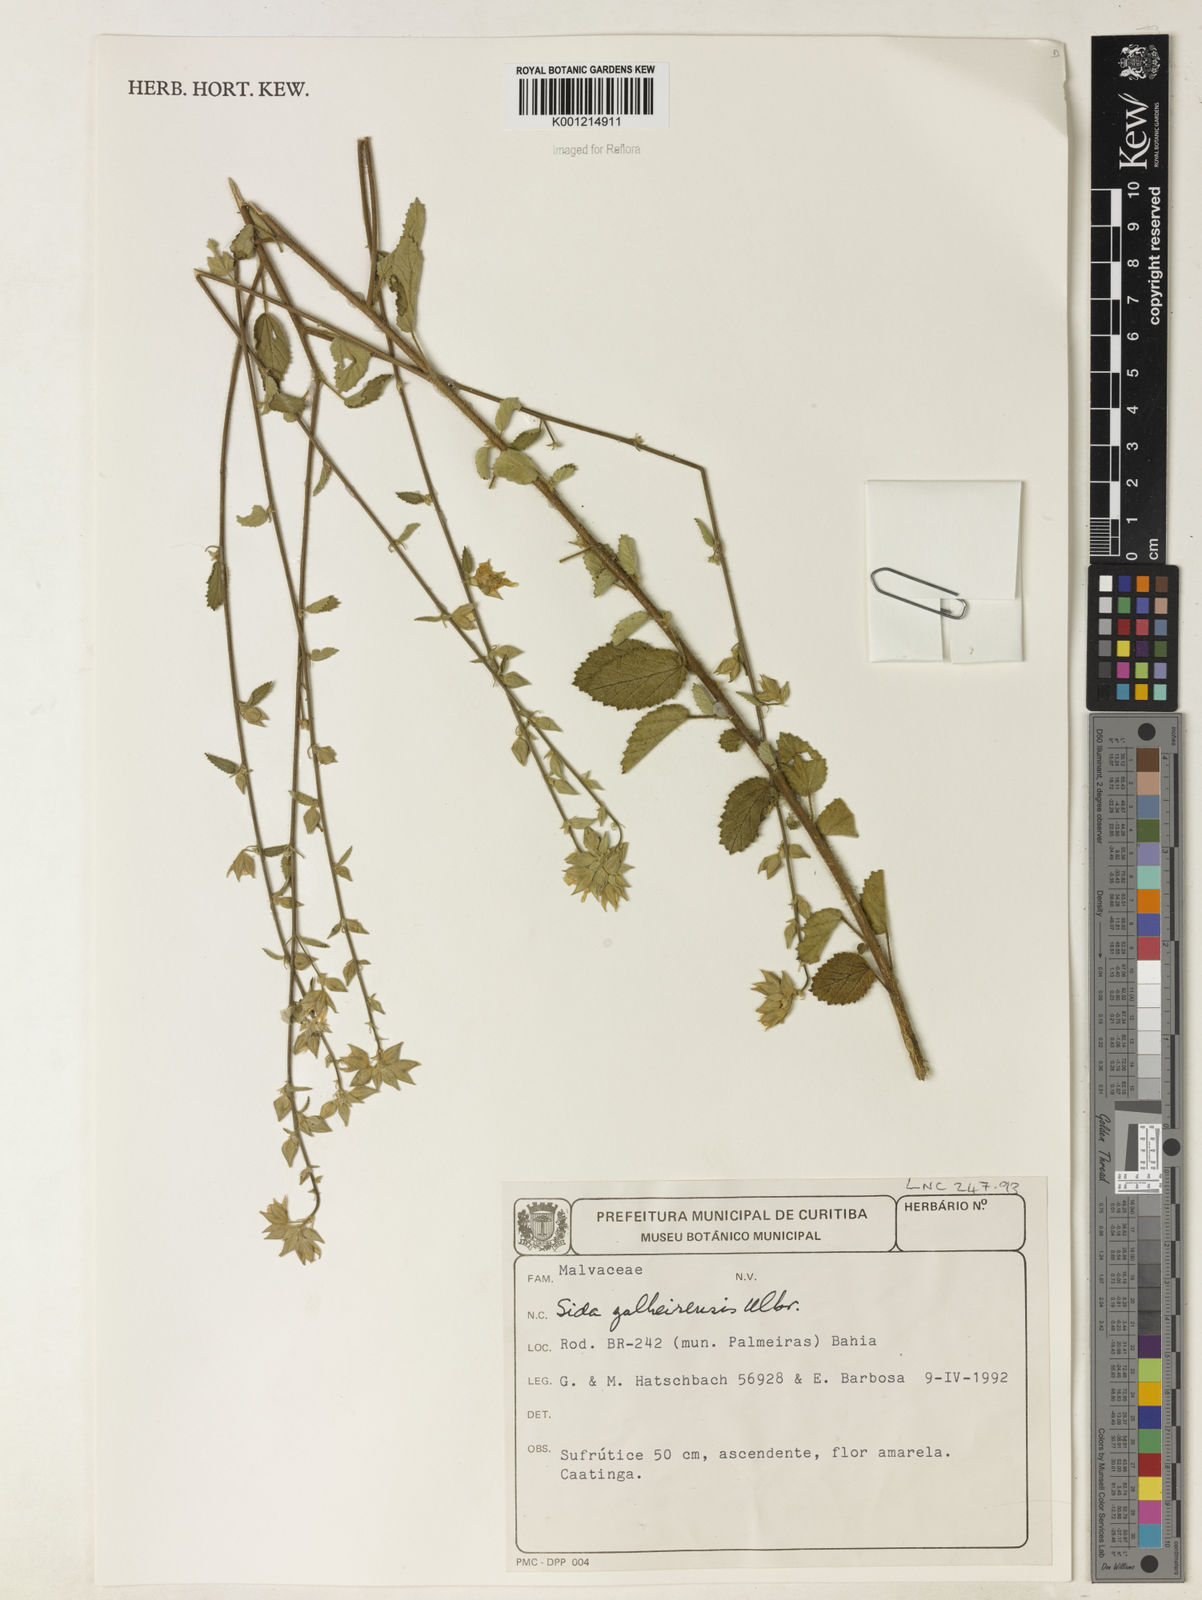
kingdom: Plantae
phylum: Tracheophyta
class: Magnoliopsida
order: Malvales
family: Malvaceae
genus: Sida
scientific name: Sida galheirensis
